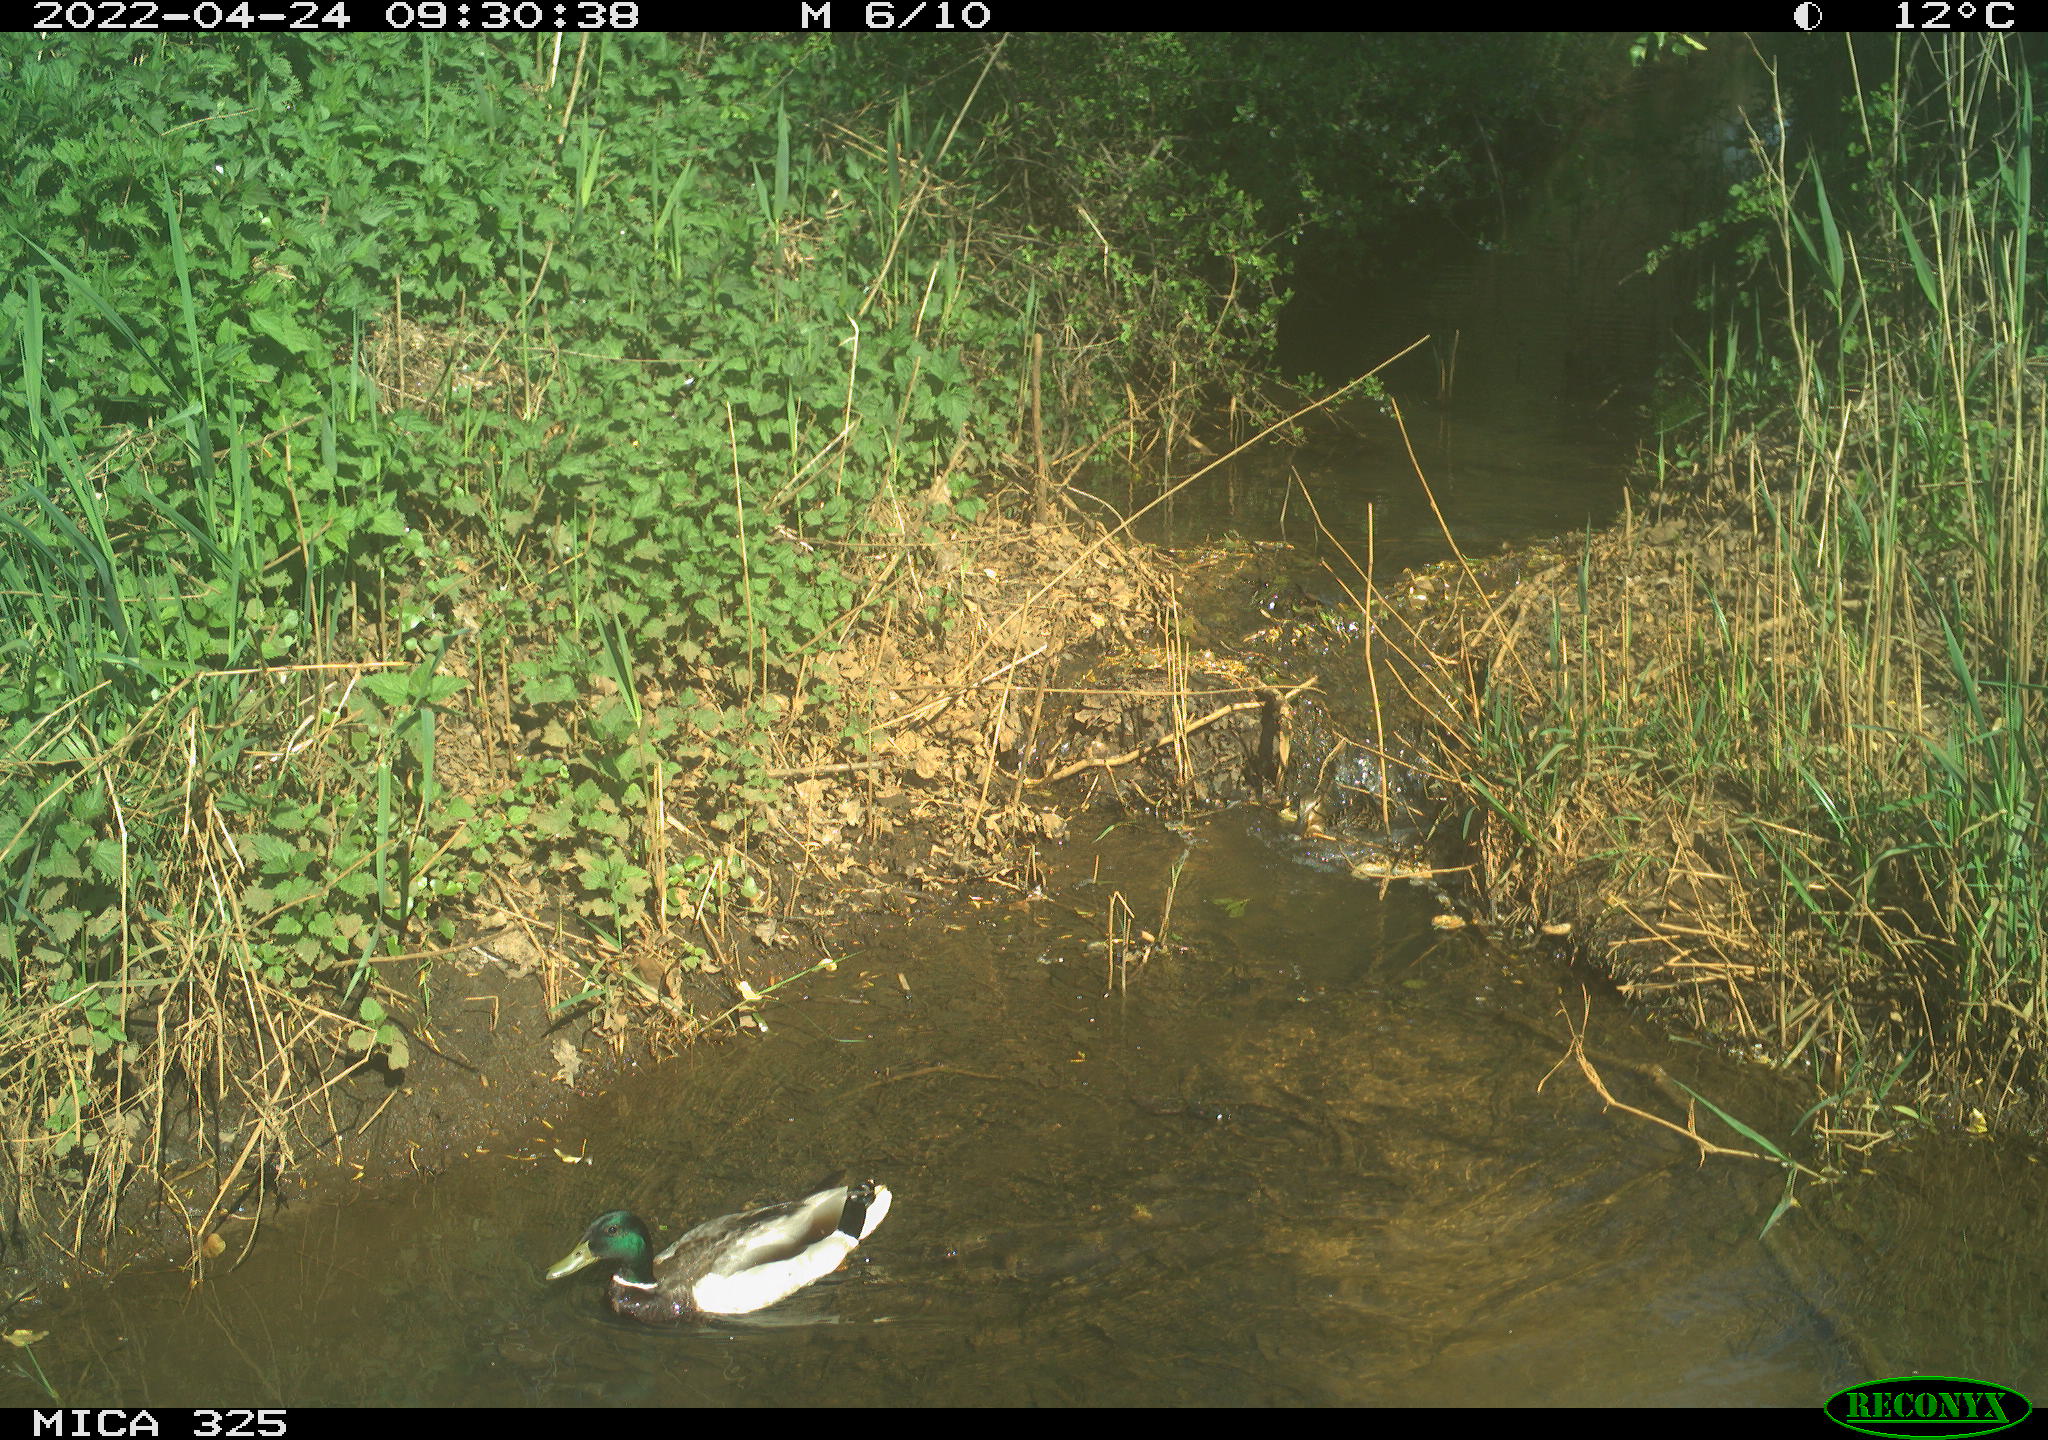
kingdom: Animalia
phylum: Chordata
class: Aves
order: Anseriformes
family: Anatidae
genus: Anas
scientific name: Anas platyrhynchos
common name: Mallard
